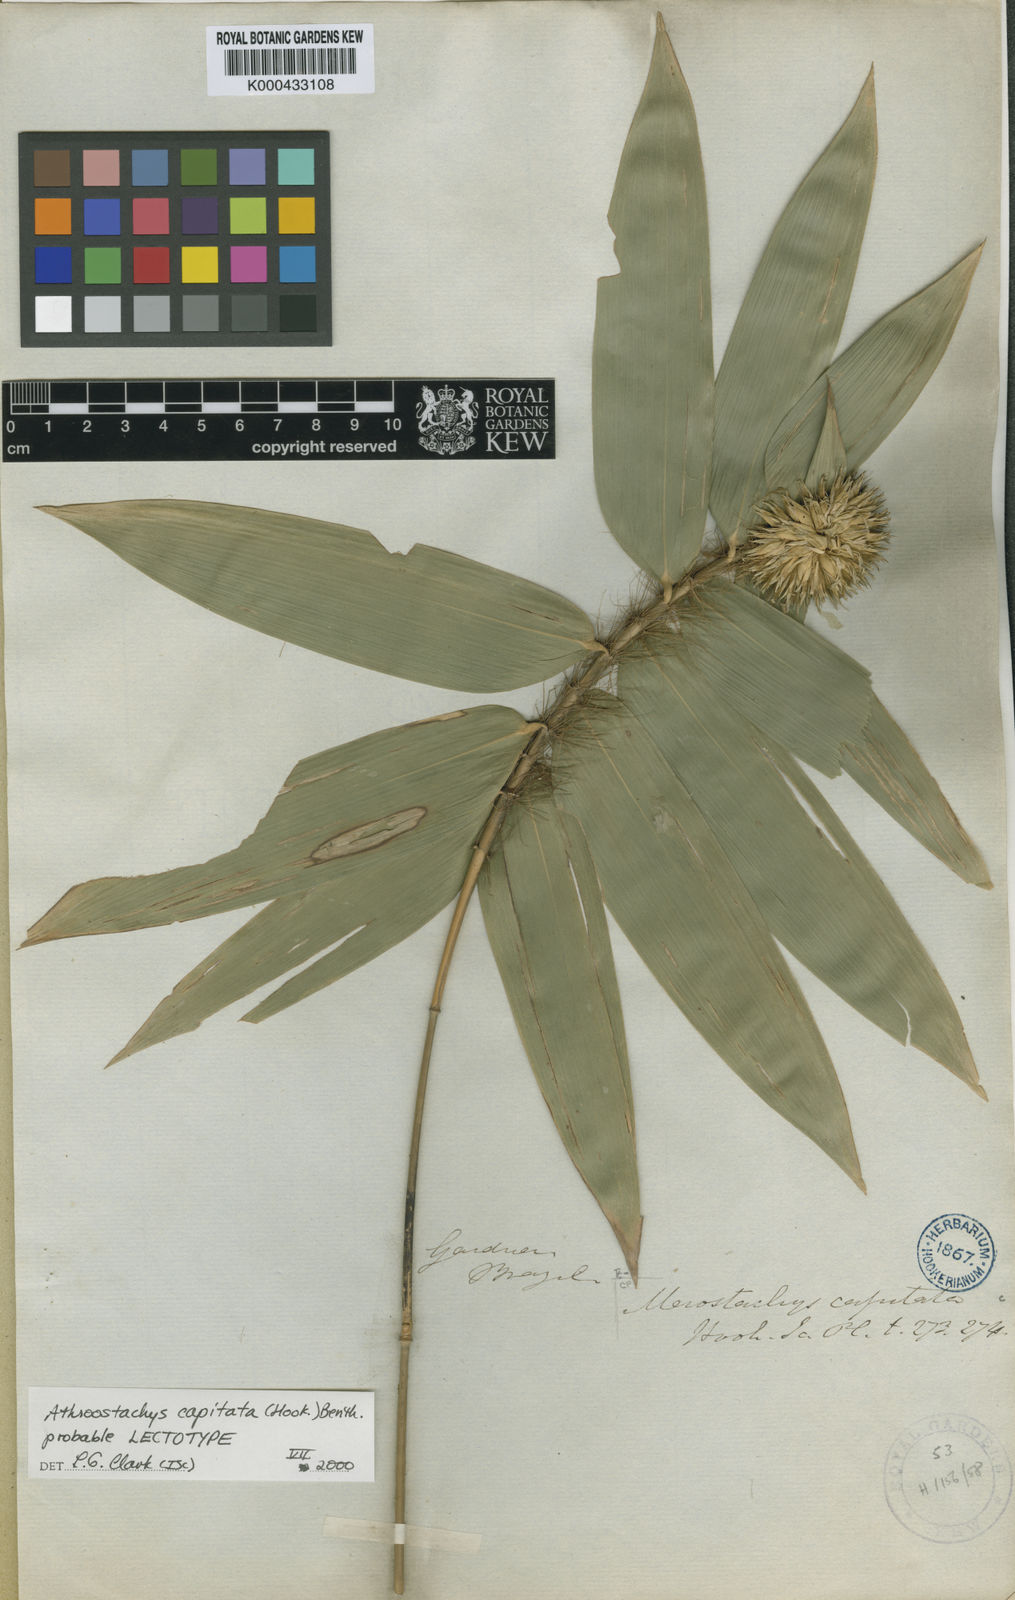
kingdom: Plantae
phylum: Tracheophyta
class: Liliopsida
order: Poales
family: Poaceae
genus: Athroostachys
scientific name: Athroostachys capitata
